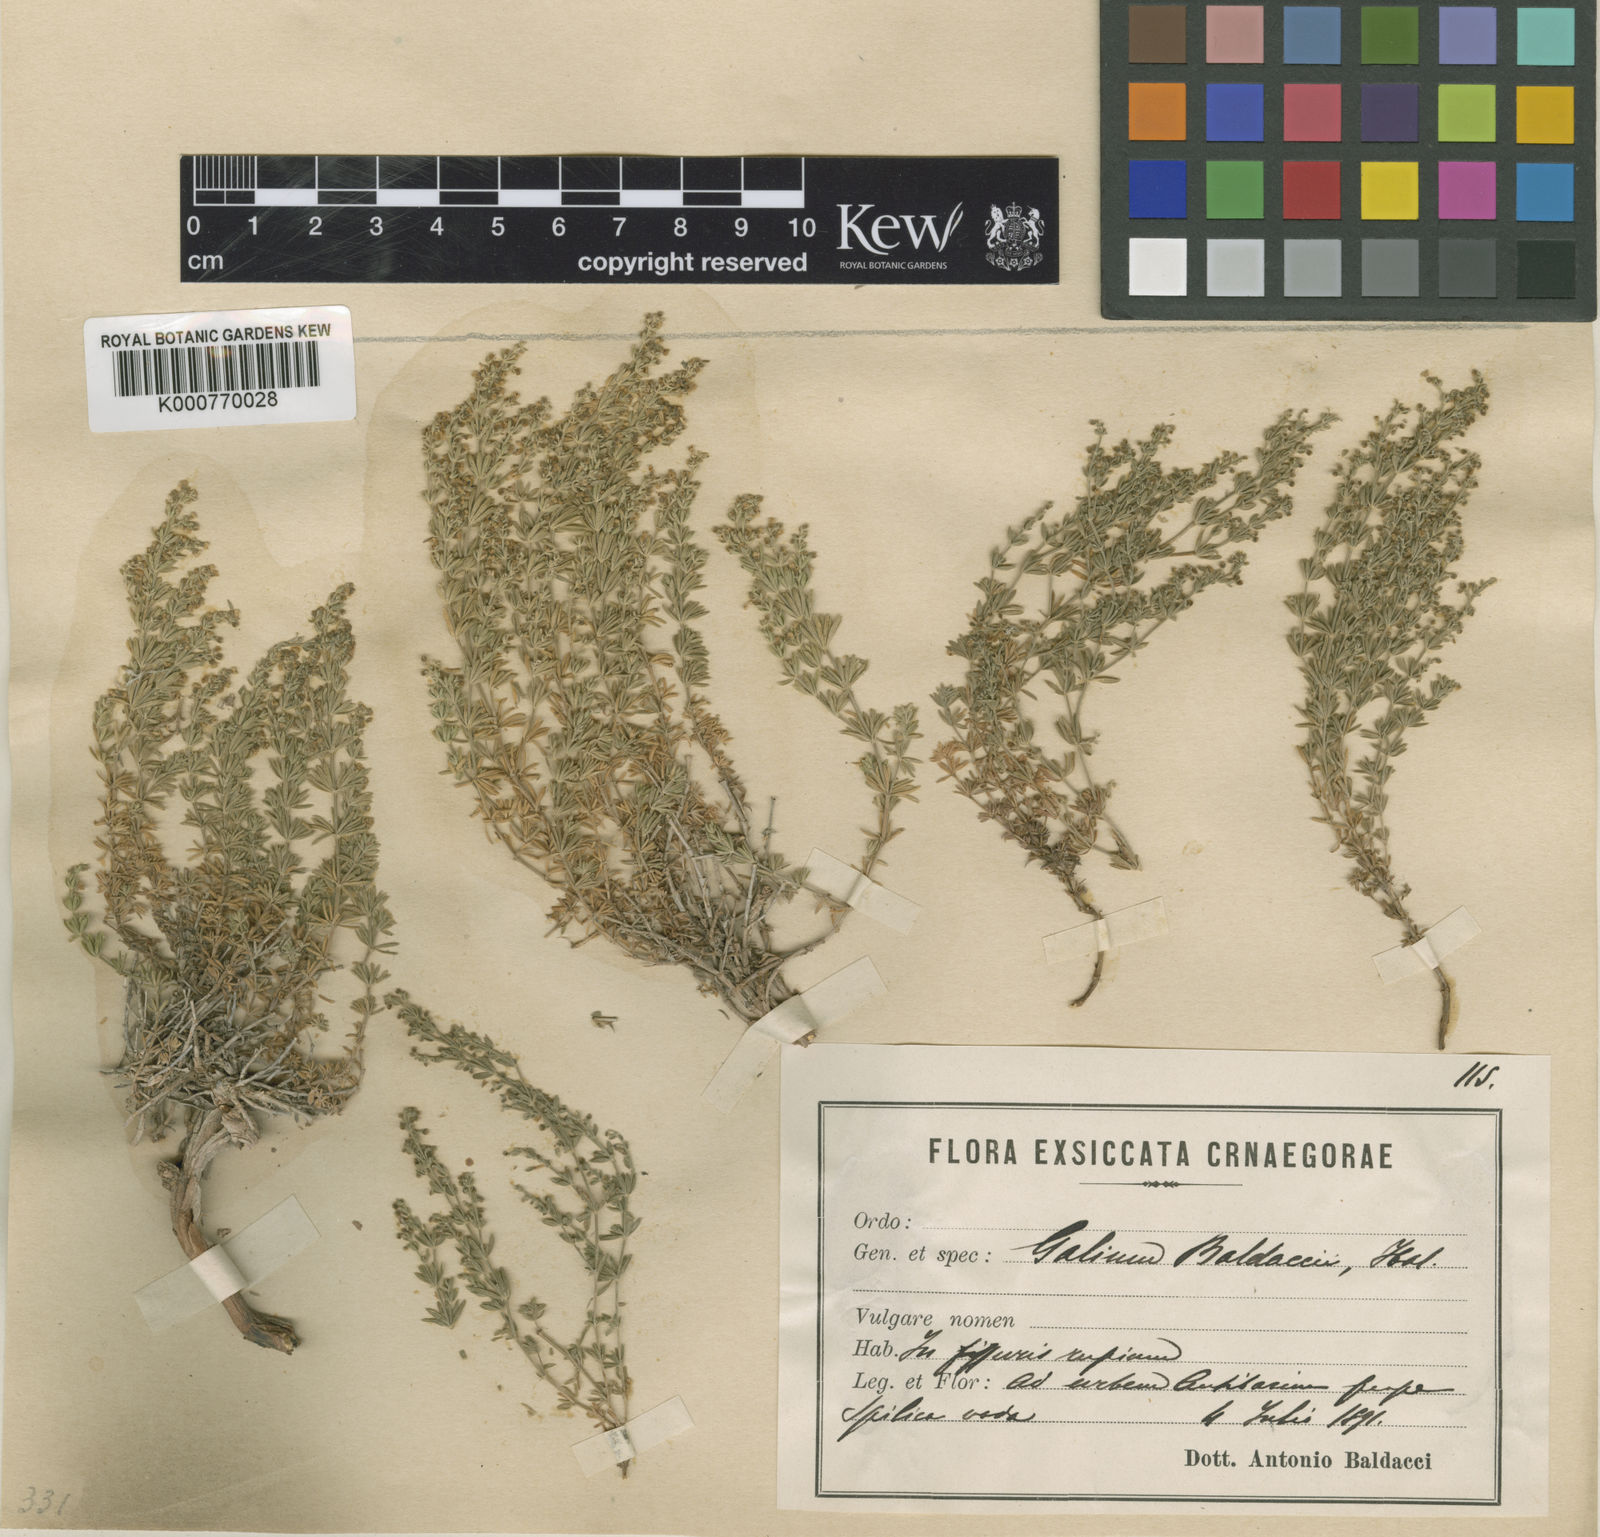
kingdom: Plantae
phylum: Tracheophyta
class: Magnoliopsida
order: Gentianales
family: Rubiaceae
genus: Asperula
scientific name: Asperula
